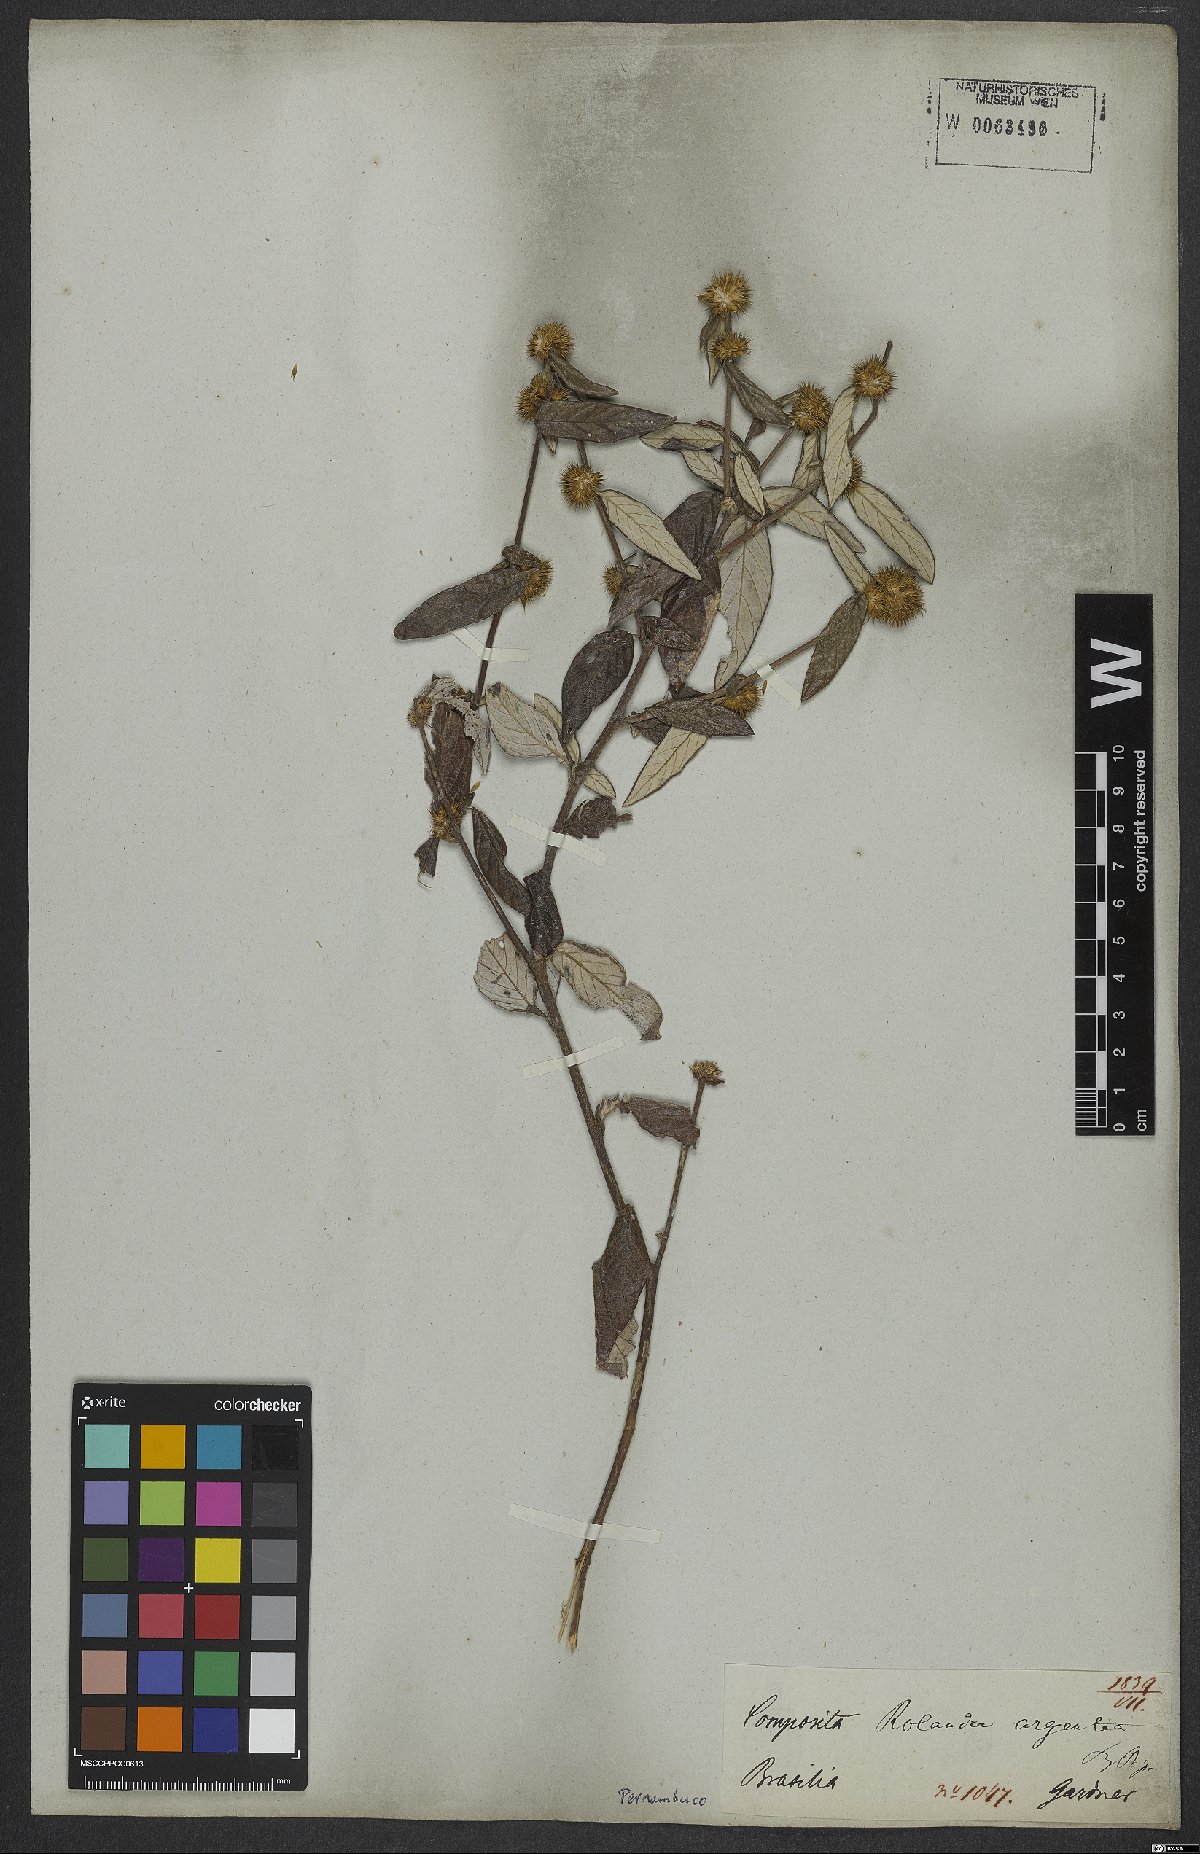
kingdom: Plantae
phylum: Tracheophyta
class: Magnoliopsida
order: Asterales
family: Asteraceae
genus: Rolandra
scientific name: Rolandra fruticosa
